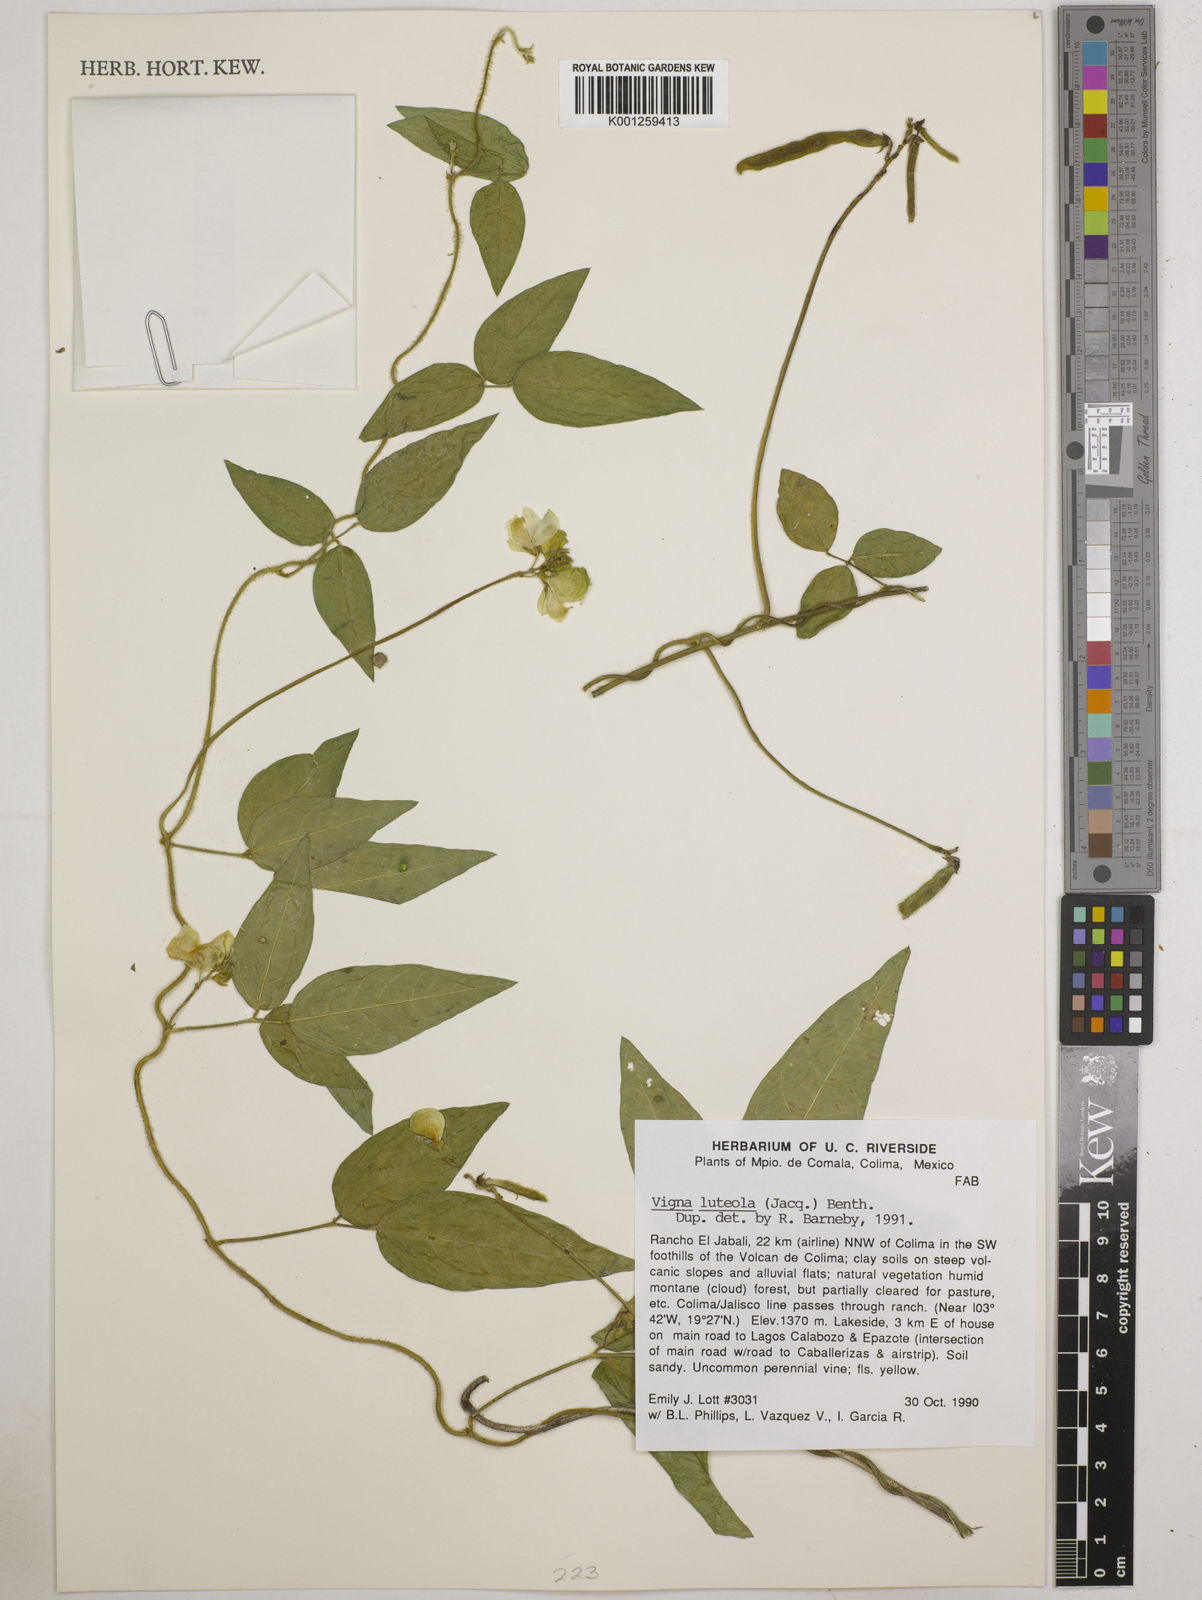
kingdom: Plantae
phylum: Tracheophyta
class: Magnoliopsida
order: Fabales
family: Fabaceae
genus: Vigna
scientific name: Vigna luteola
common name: Hairypod cowpea
